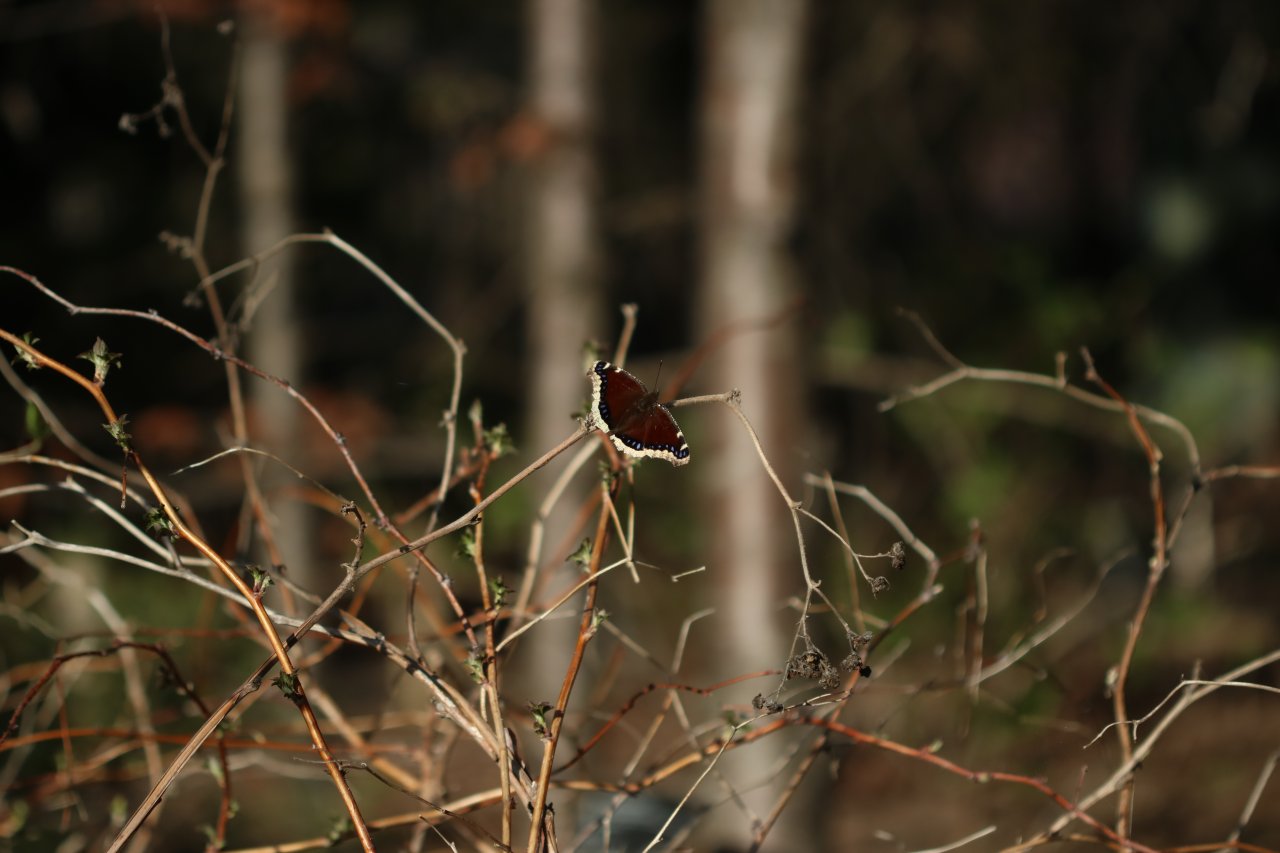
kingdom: Animalia
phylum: Arthropoda
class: Insecta
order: Lepidoptera
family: Nymphalidae
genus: Nymphalis
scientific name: Nymphalis antiopa
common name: Mourning Cloak
